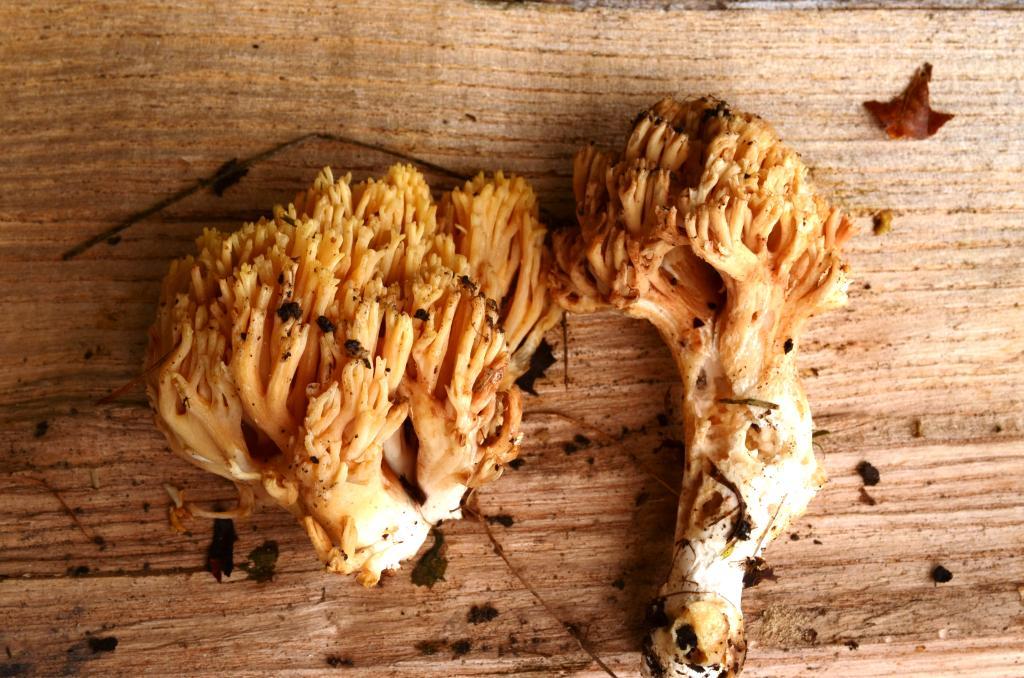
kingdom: Fungi
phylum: Basidiomycota
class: Agaricomycetes
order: Gomphales
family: Gomphaceae
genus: Ramaria
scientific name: Ramaria krieglsteineri
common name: smalsporet koralsvamp
